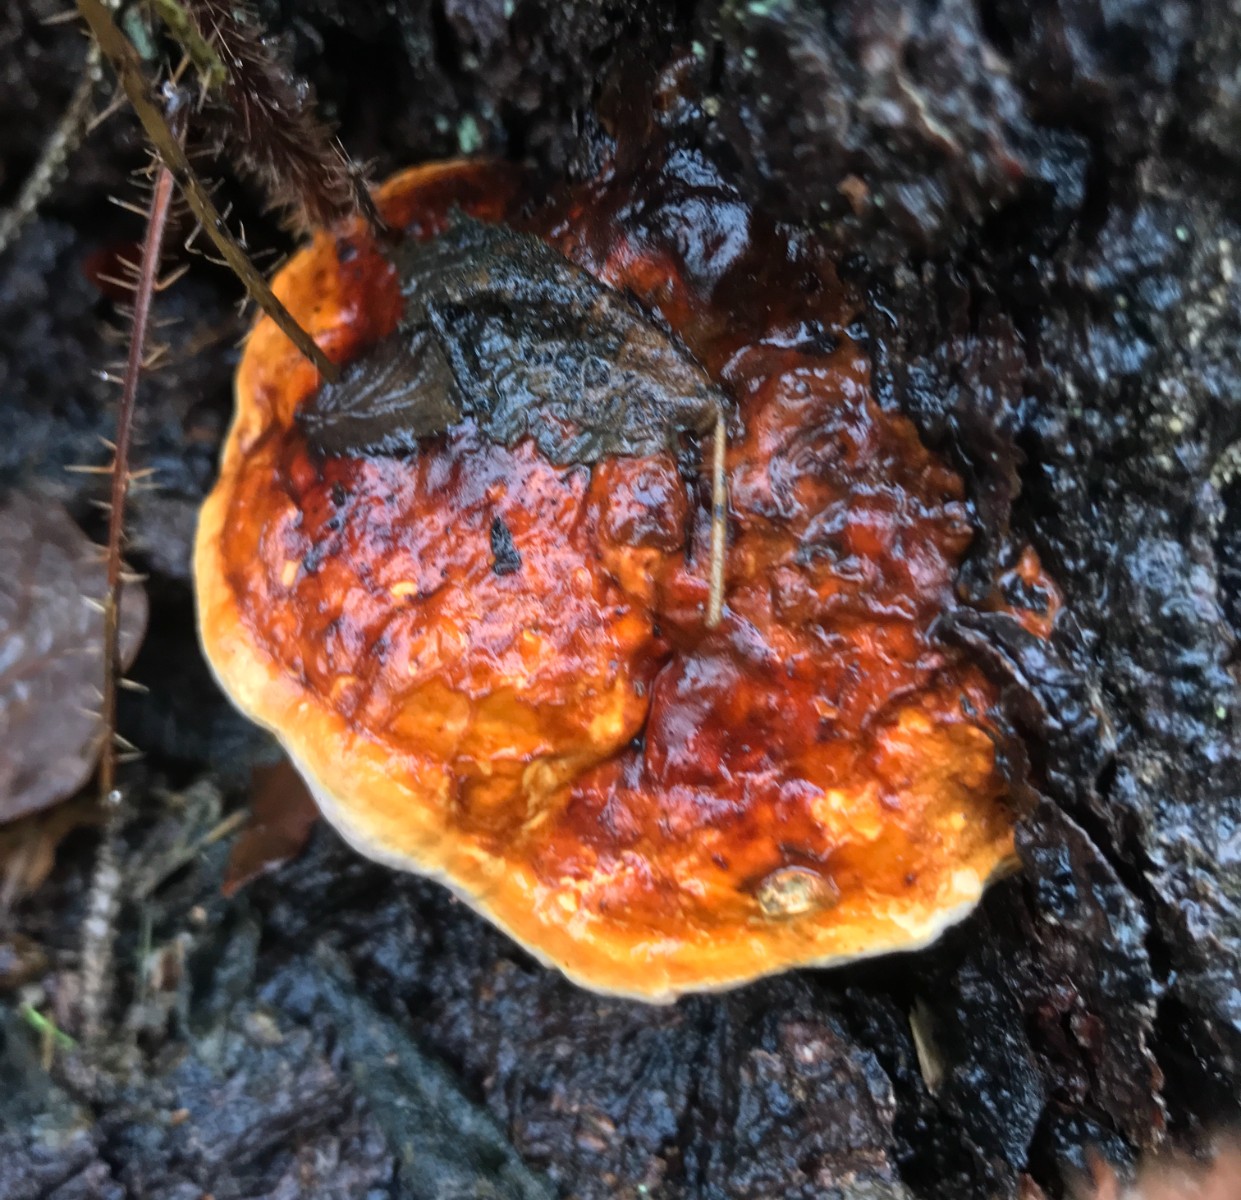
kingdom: Fungi
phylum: Basidiomycota
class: Agaricomycetes
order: Polyporales
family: Fomitopsidaceae
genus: Fomitopsis
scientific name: Fomitopsis pinicola
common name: randbæltet hovporesvamp
